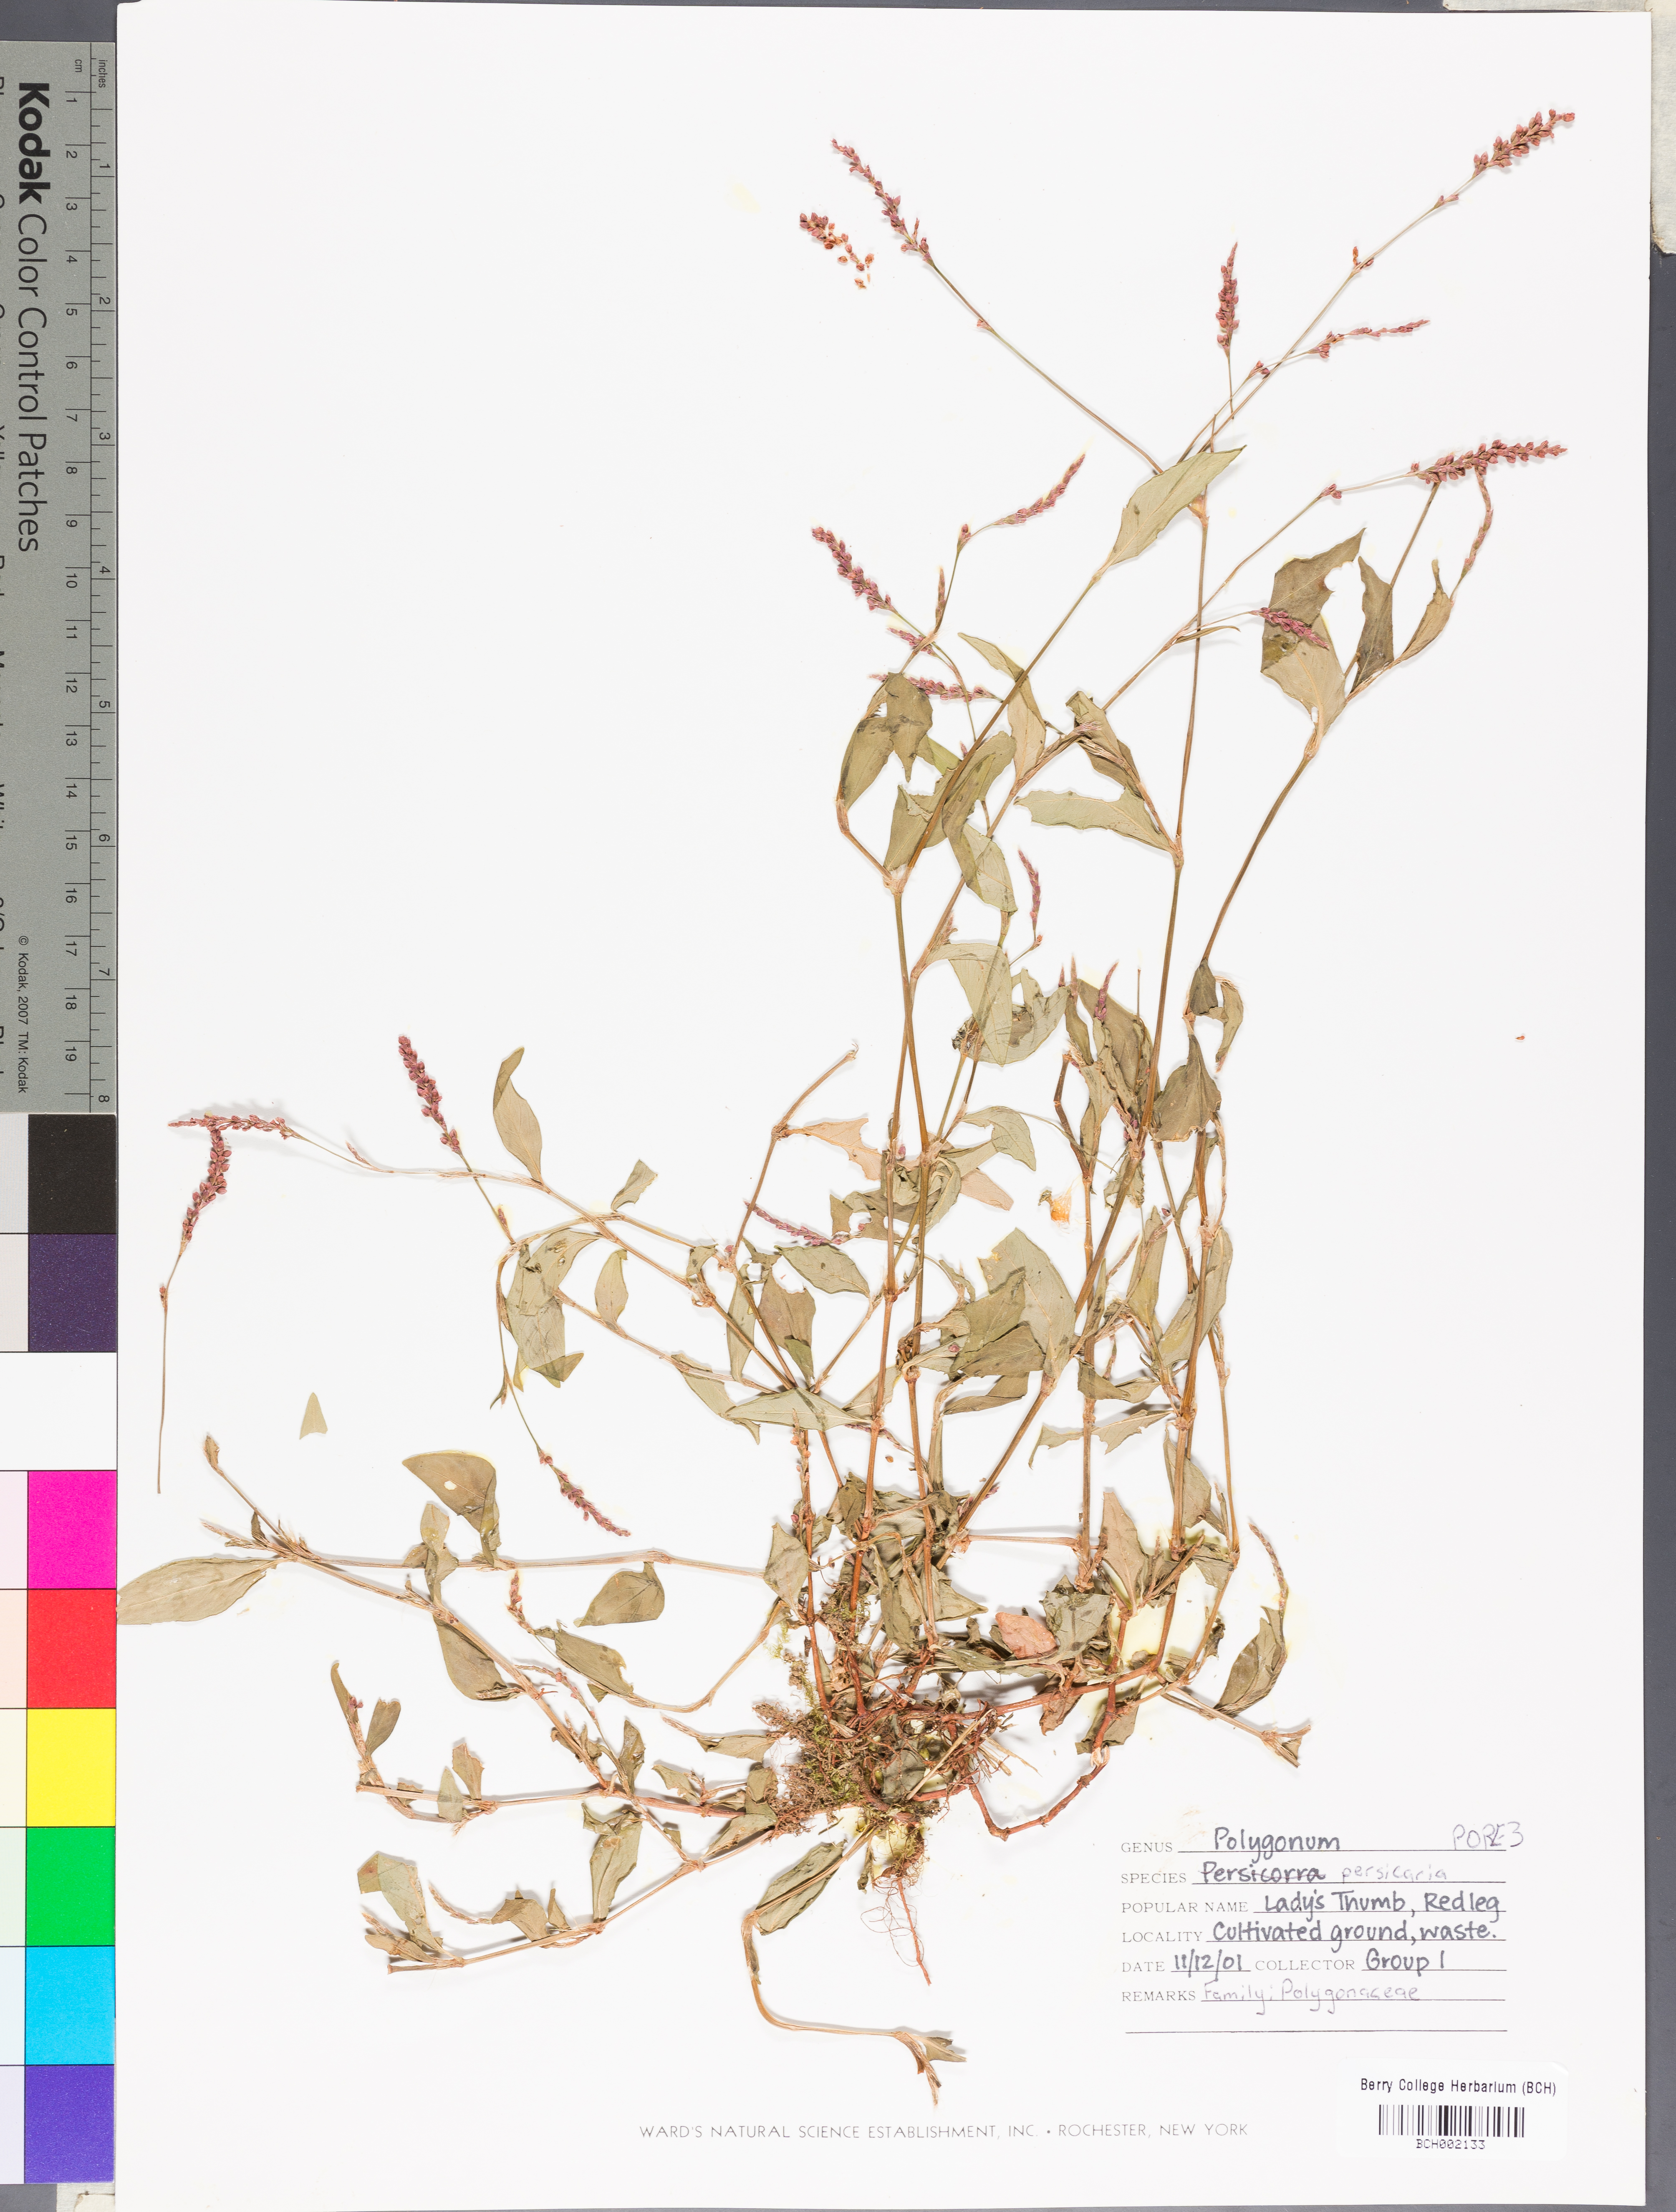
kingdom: Plantae
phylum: Tracheophyta
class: Magnoliopsida
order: Caryophyllales
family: Polygonaceae
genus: Persicaria
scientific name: Persicaria maculosa
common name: Redshank
